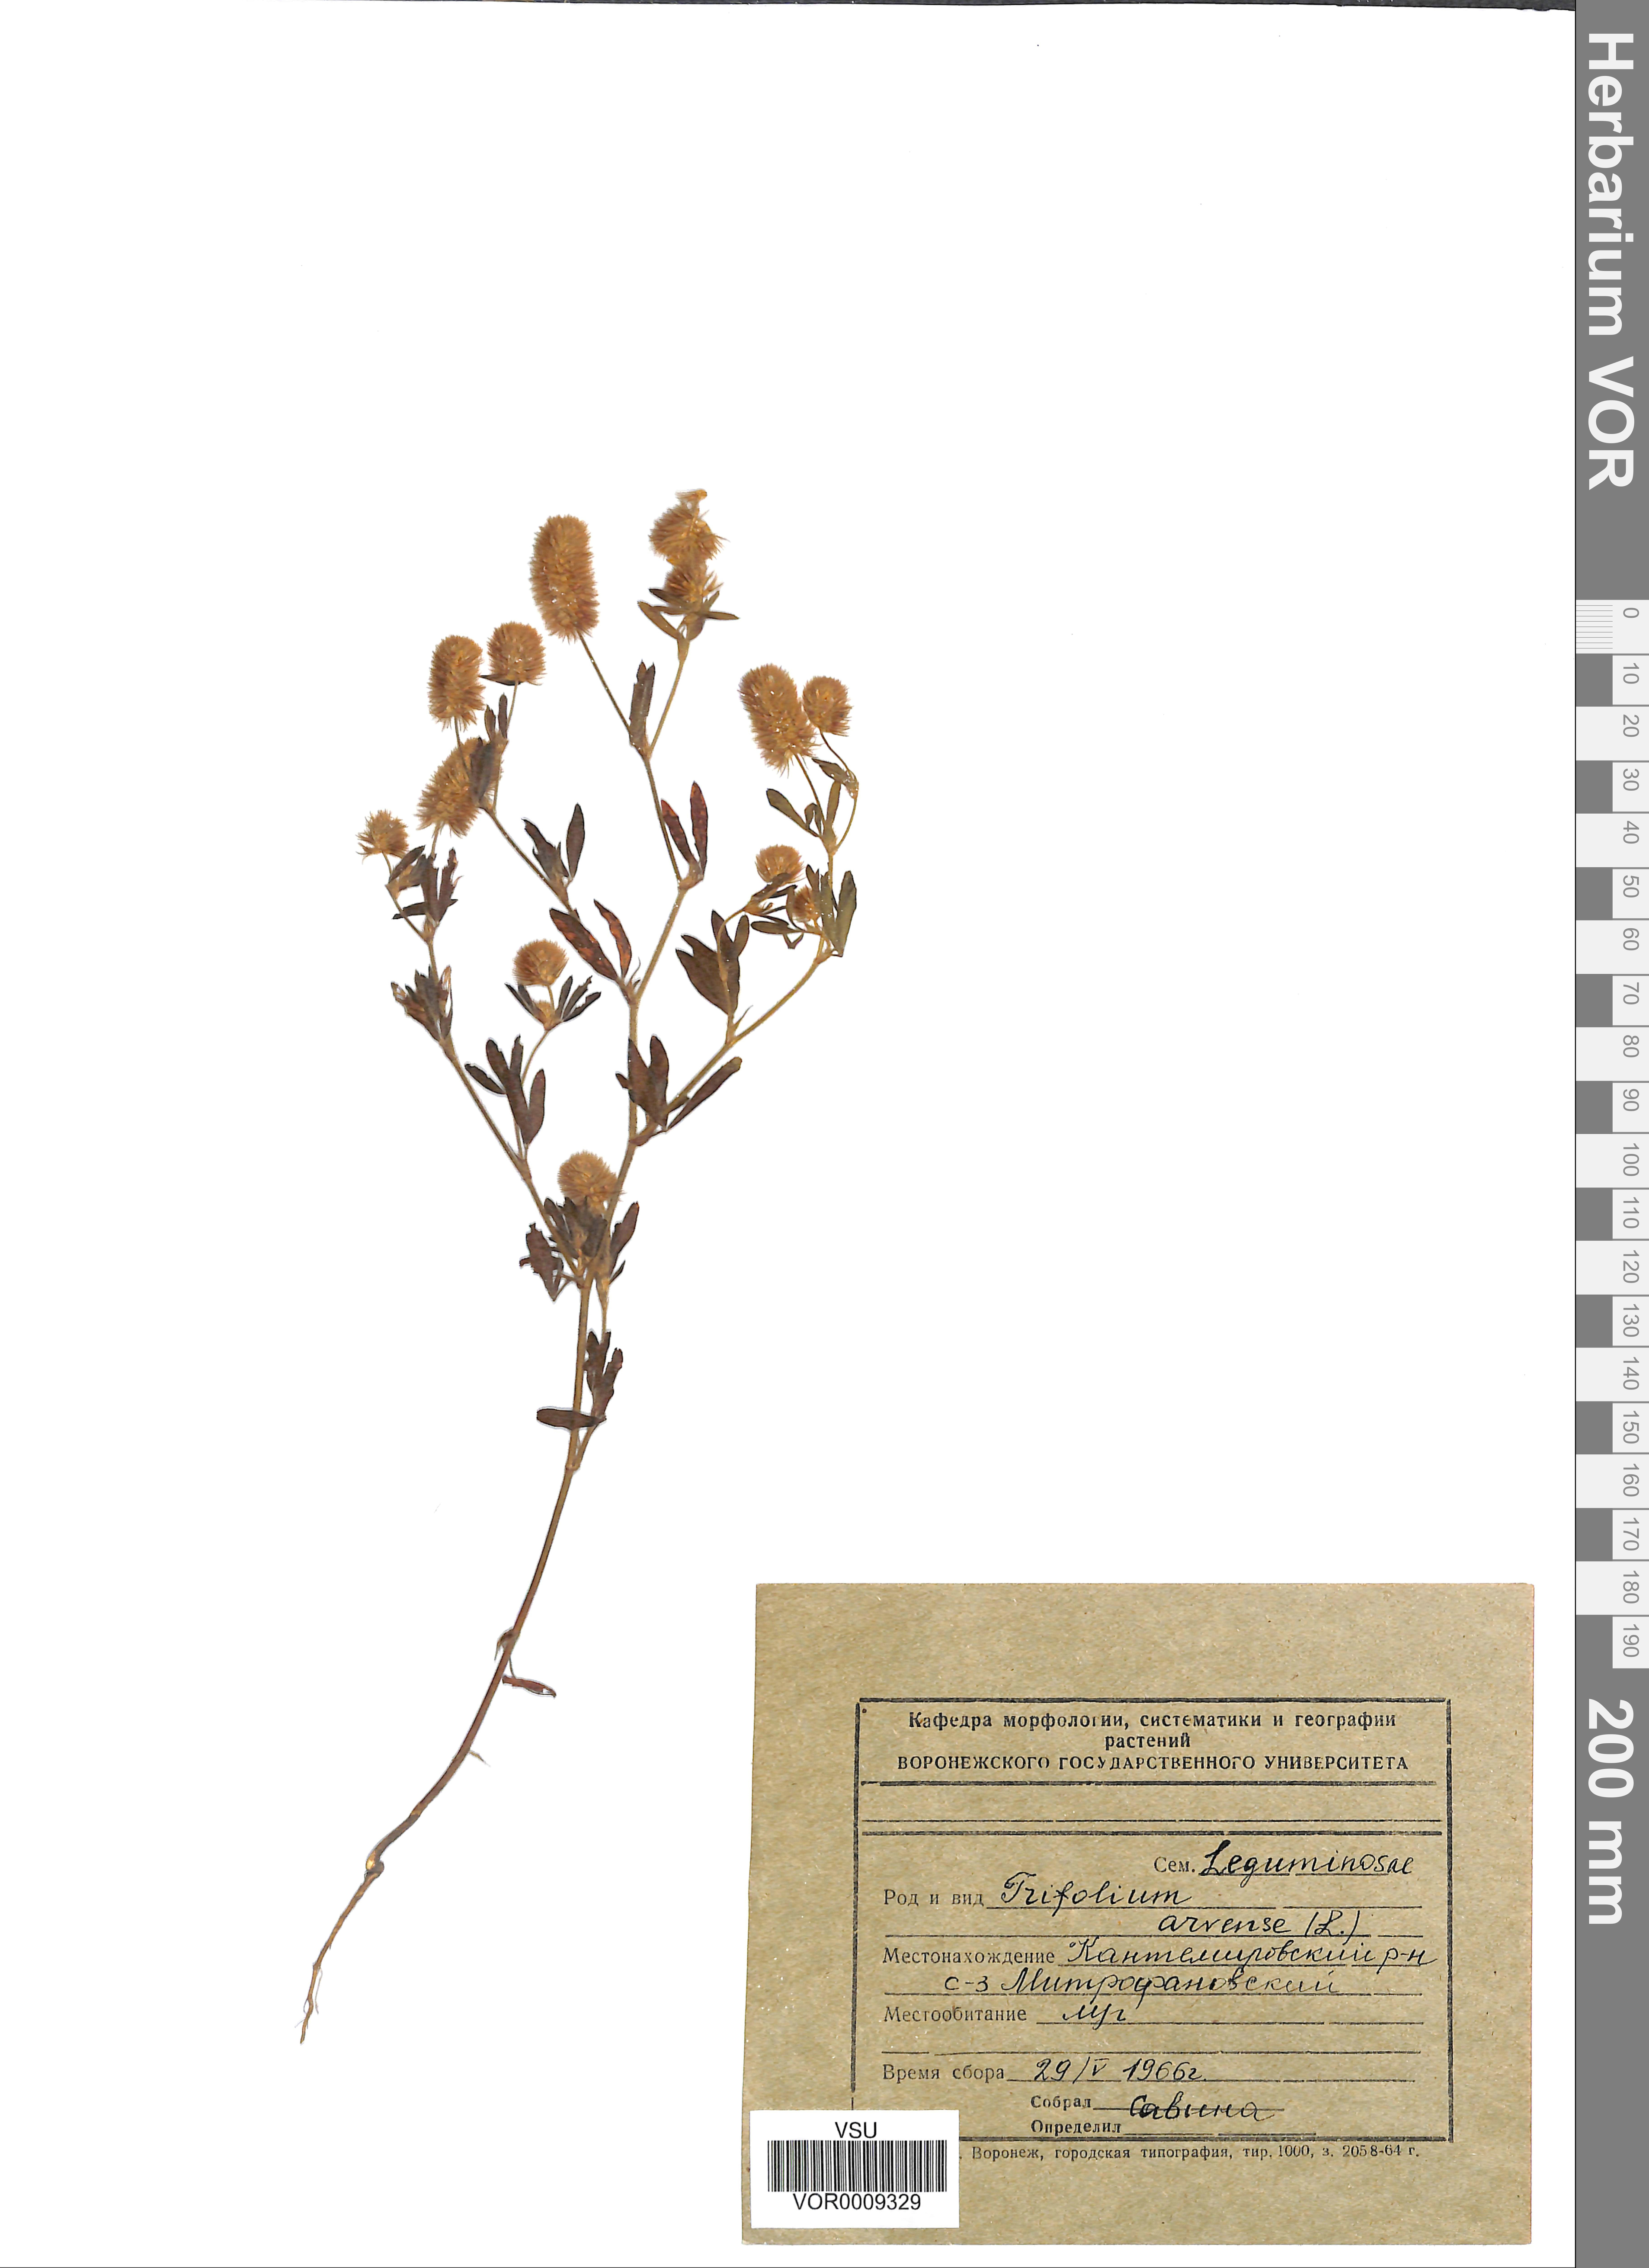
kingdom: Plantae
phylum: Tracheophyta
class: Magnoliopsida
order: Fabales
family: Fabaceae
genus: Trifolium
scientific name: Trifolium arvense
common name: Hare's-foot clover
